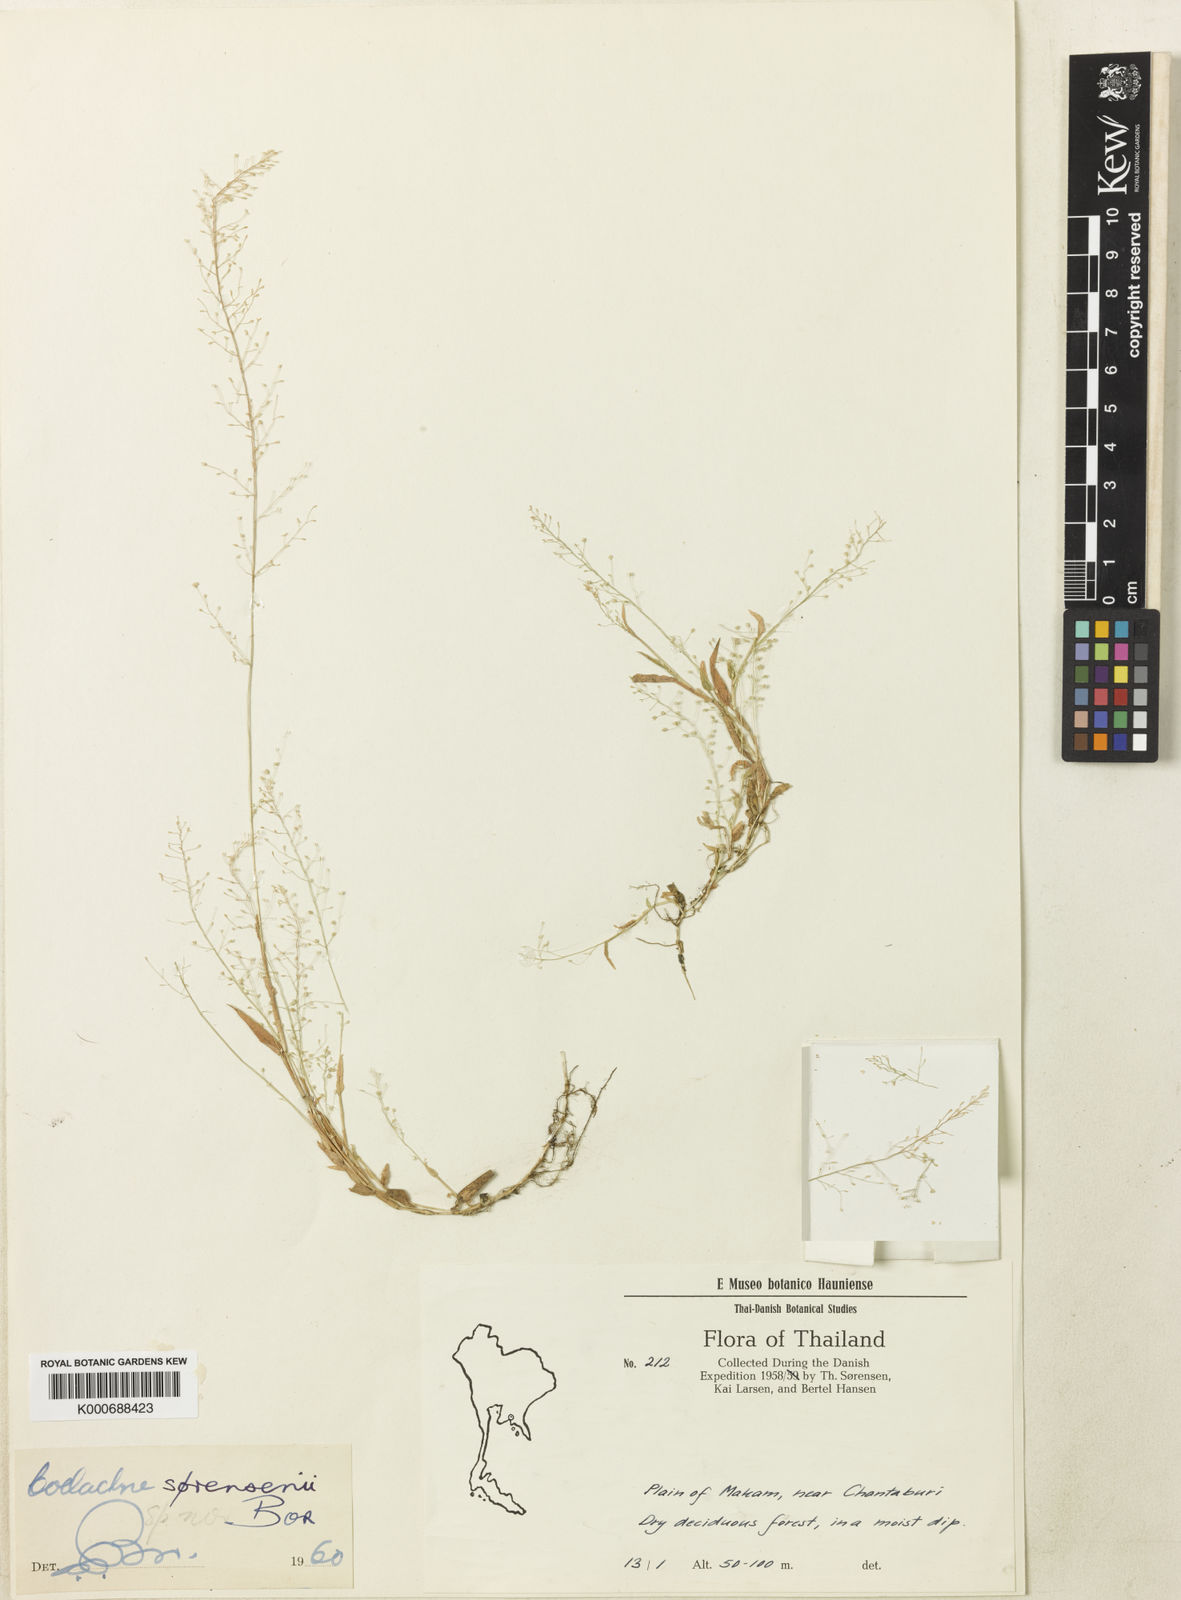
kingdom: Plantae
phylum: Tracheophyta
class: Liliopsida
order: Poales
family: Poaceae
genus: Coelachne
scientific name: Coelachne soerensenii
